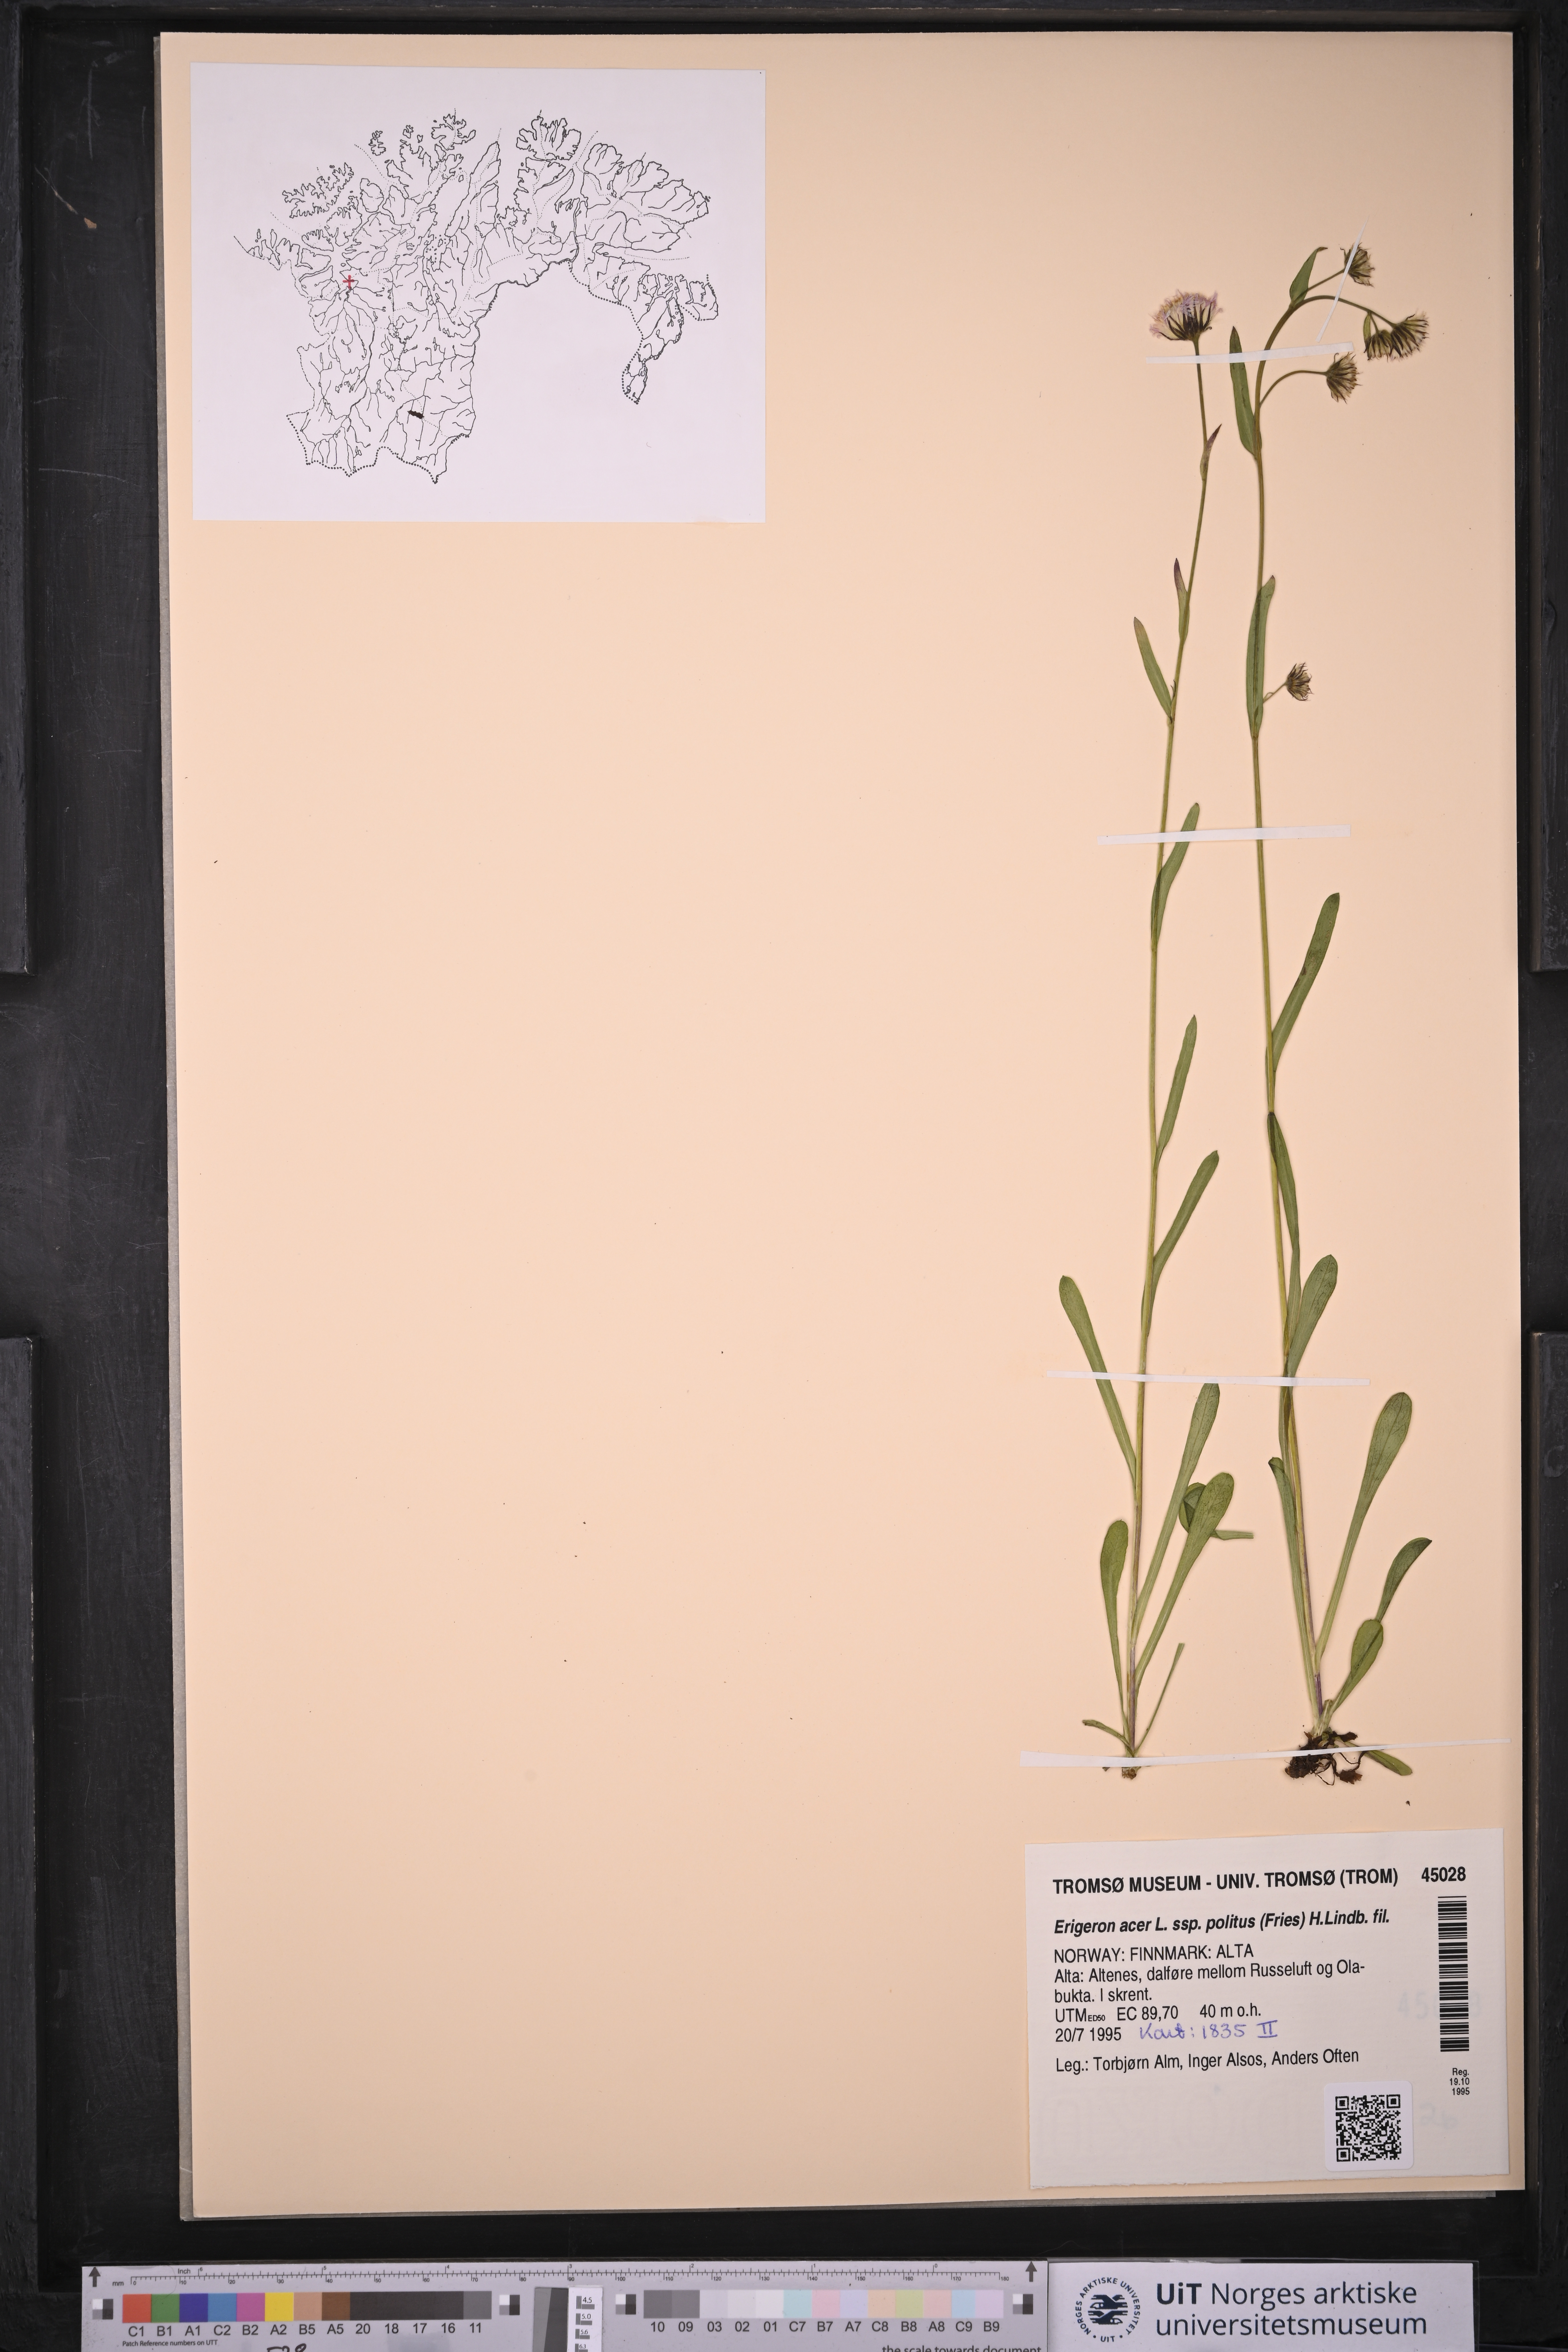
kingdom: Plantae
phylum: Tracheophyta
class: Magnoliopsida
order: Asterales
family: Asteraceae
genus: Erigeron
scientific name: Erigeron politus
